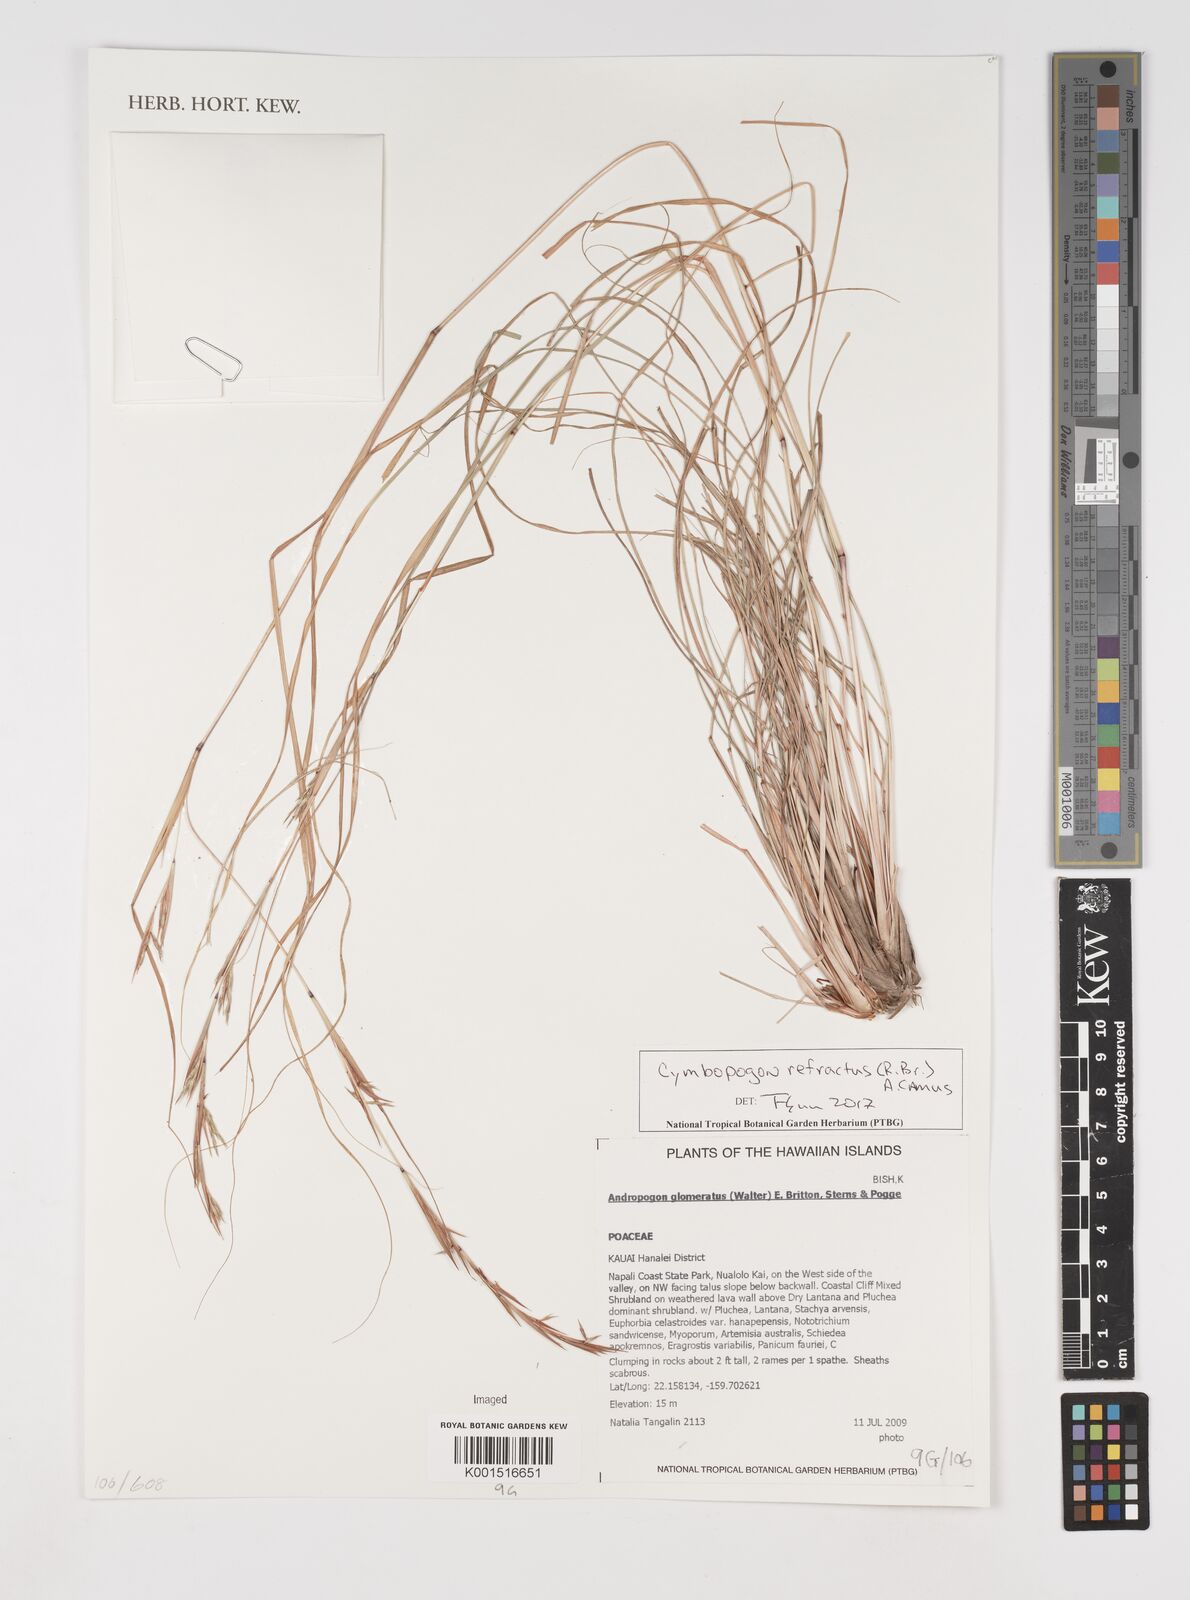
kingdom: Plantae
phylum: Tracheophyta
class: Liliopsida
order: Poales
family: Poaceae
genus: Cymbopogon
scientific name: Cymbopogon refractus
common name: Barbwire grass
